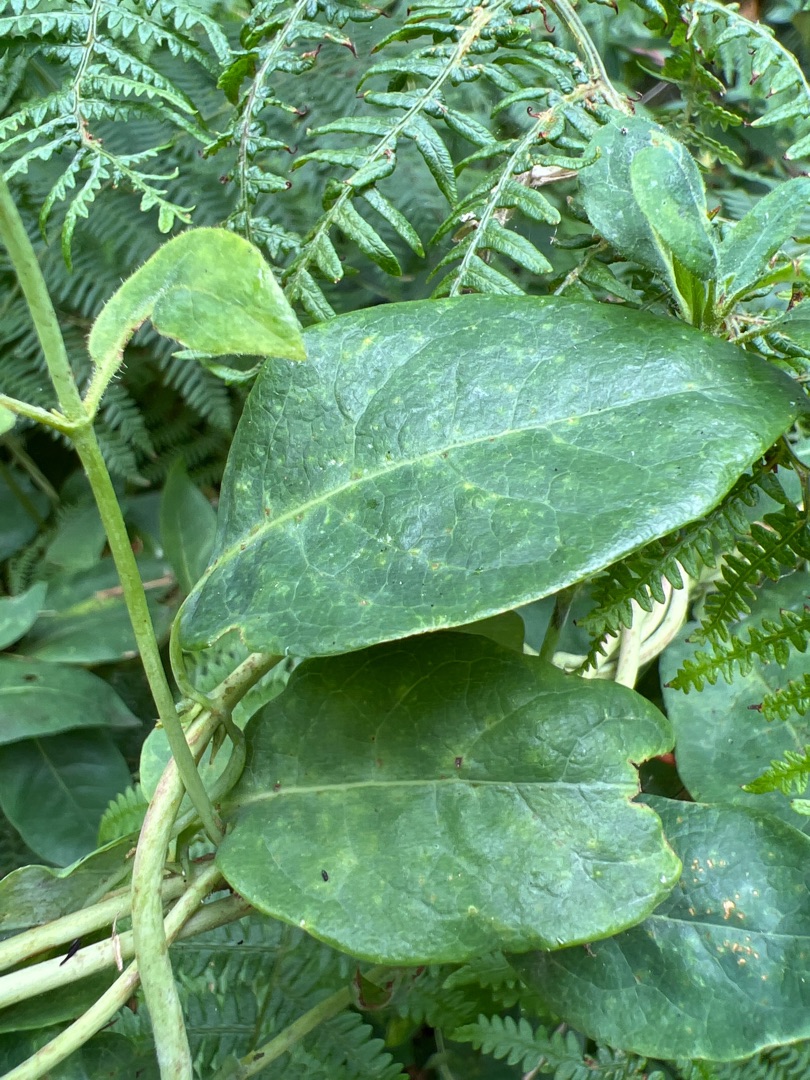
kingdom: Plantae
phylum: Tracheophyta
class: Magnoliopsida
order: Dipsacales
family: Caprifoliaceae
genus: Lonicera
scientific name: Lonicera periclymenum
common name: Almindelig gedeblad
